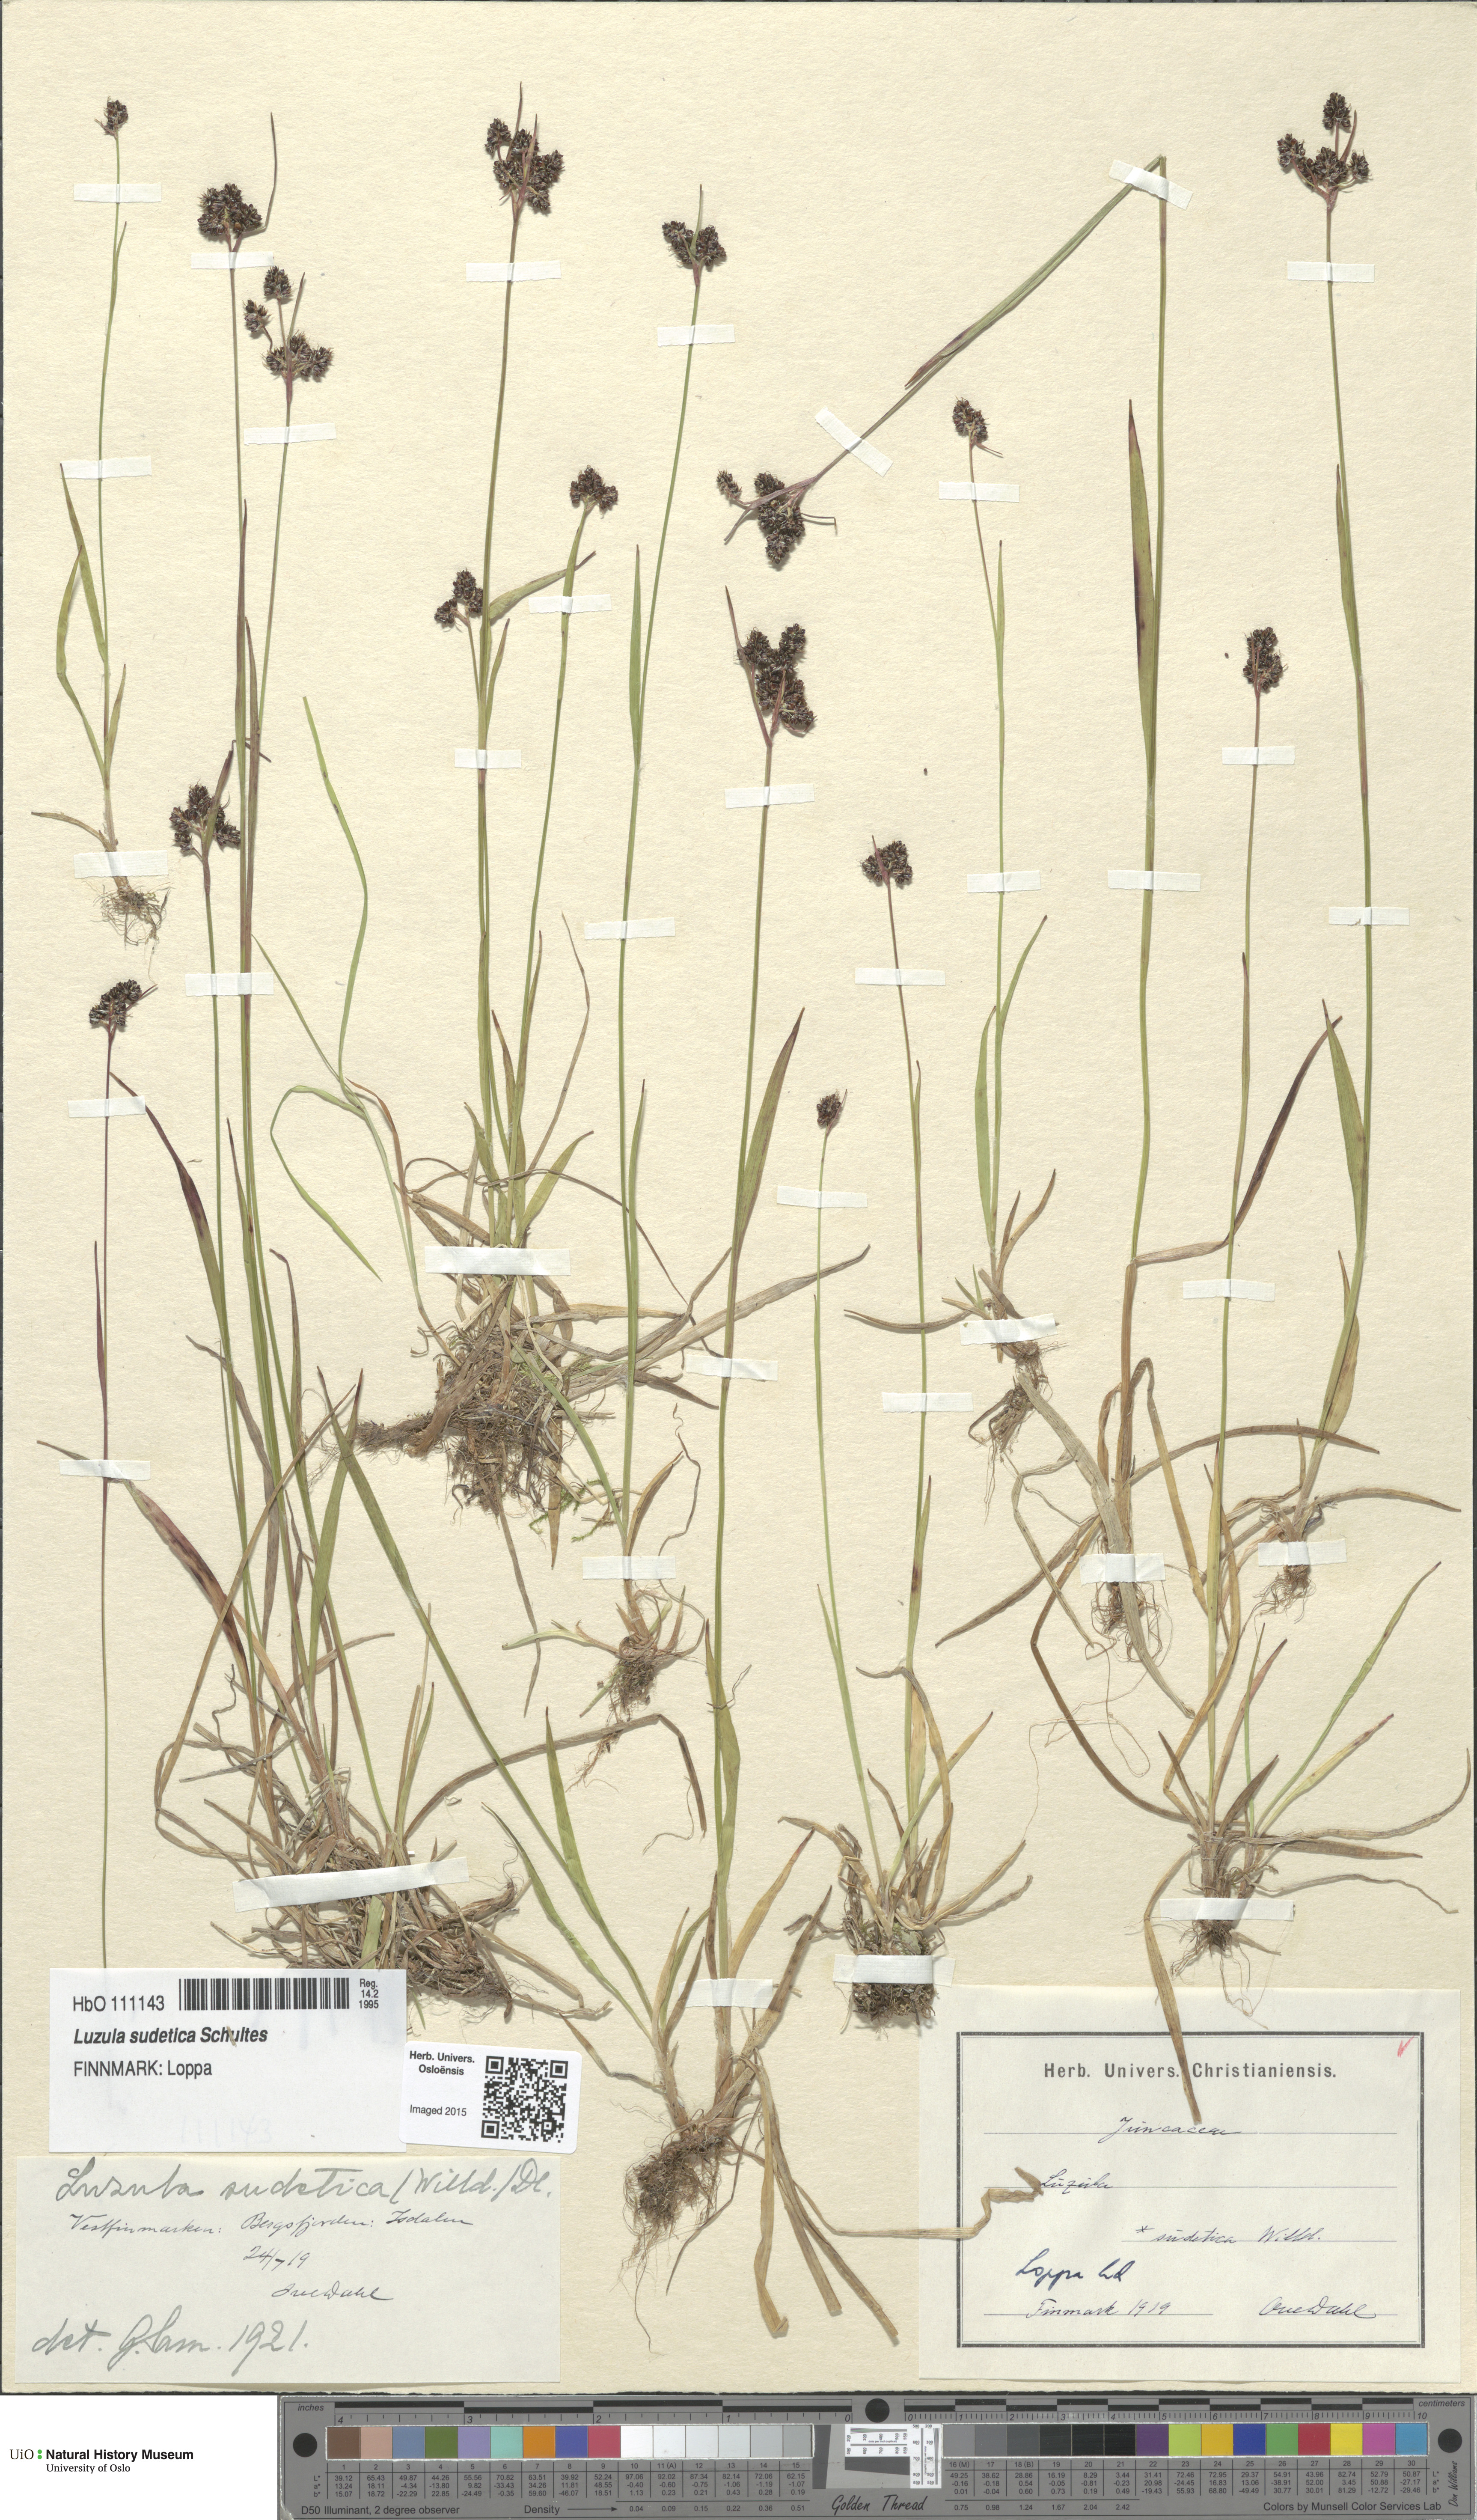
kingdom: Plantae
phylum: Tracheophyta
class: Liliopsida
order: Poales
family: Juncaceae
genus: Luzula
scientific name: Luzula sudetica
